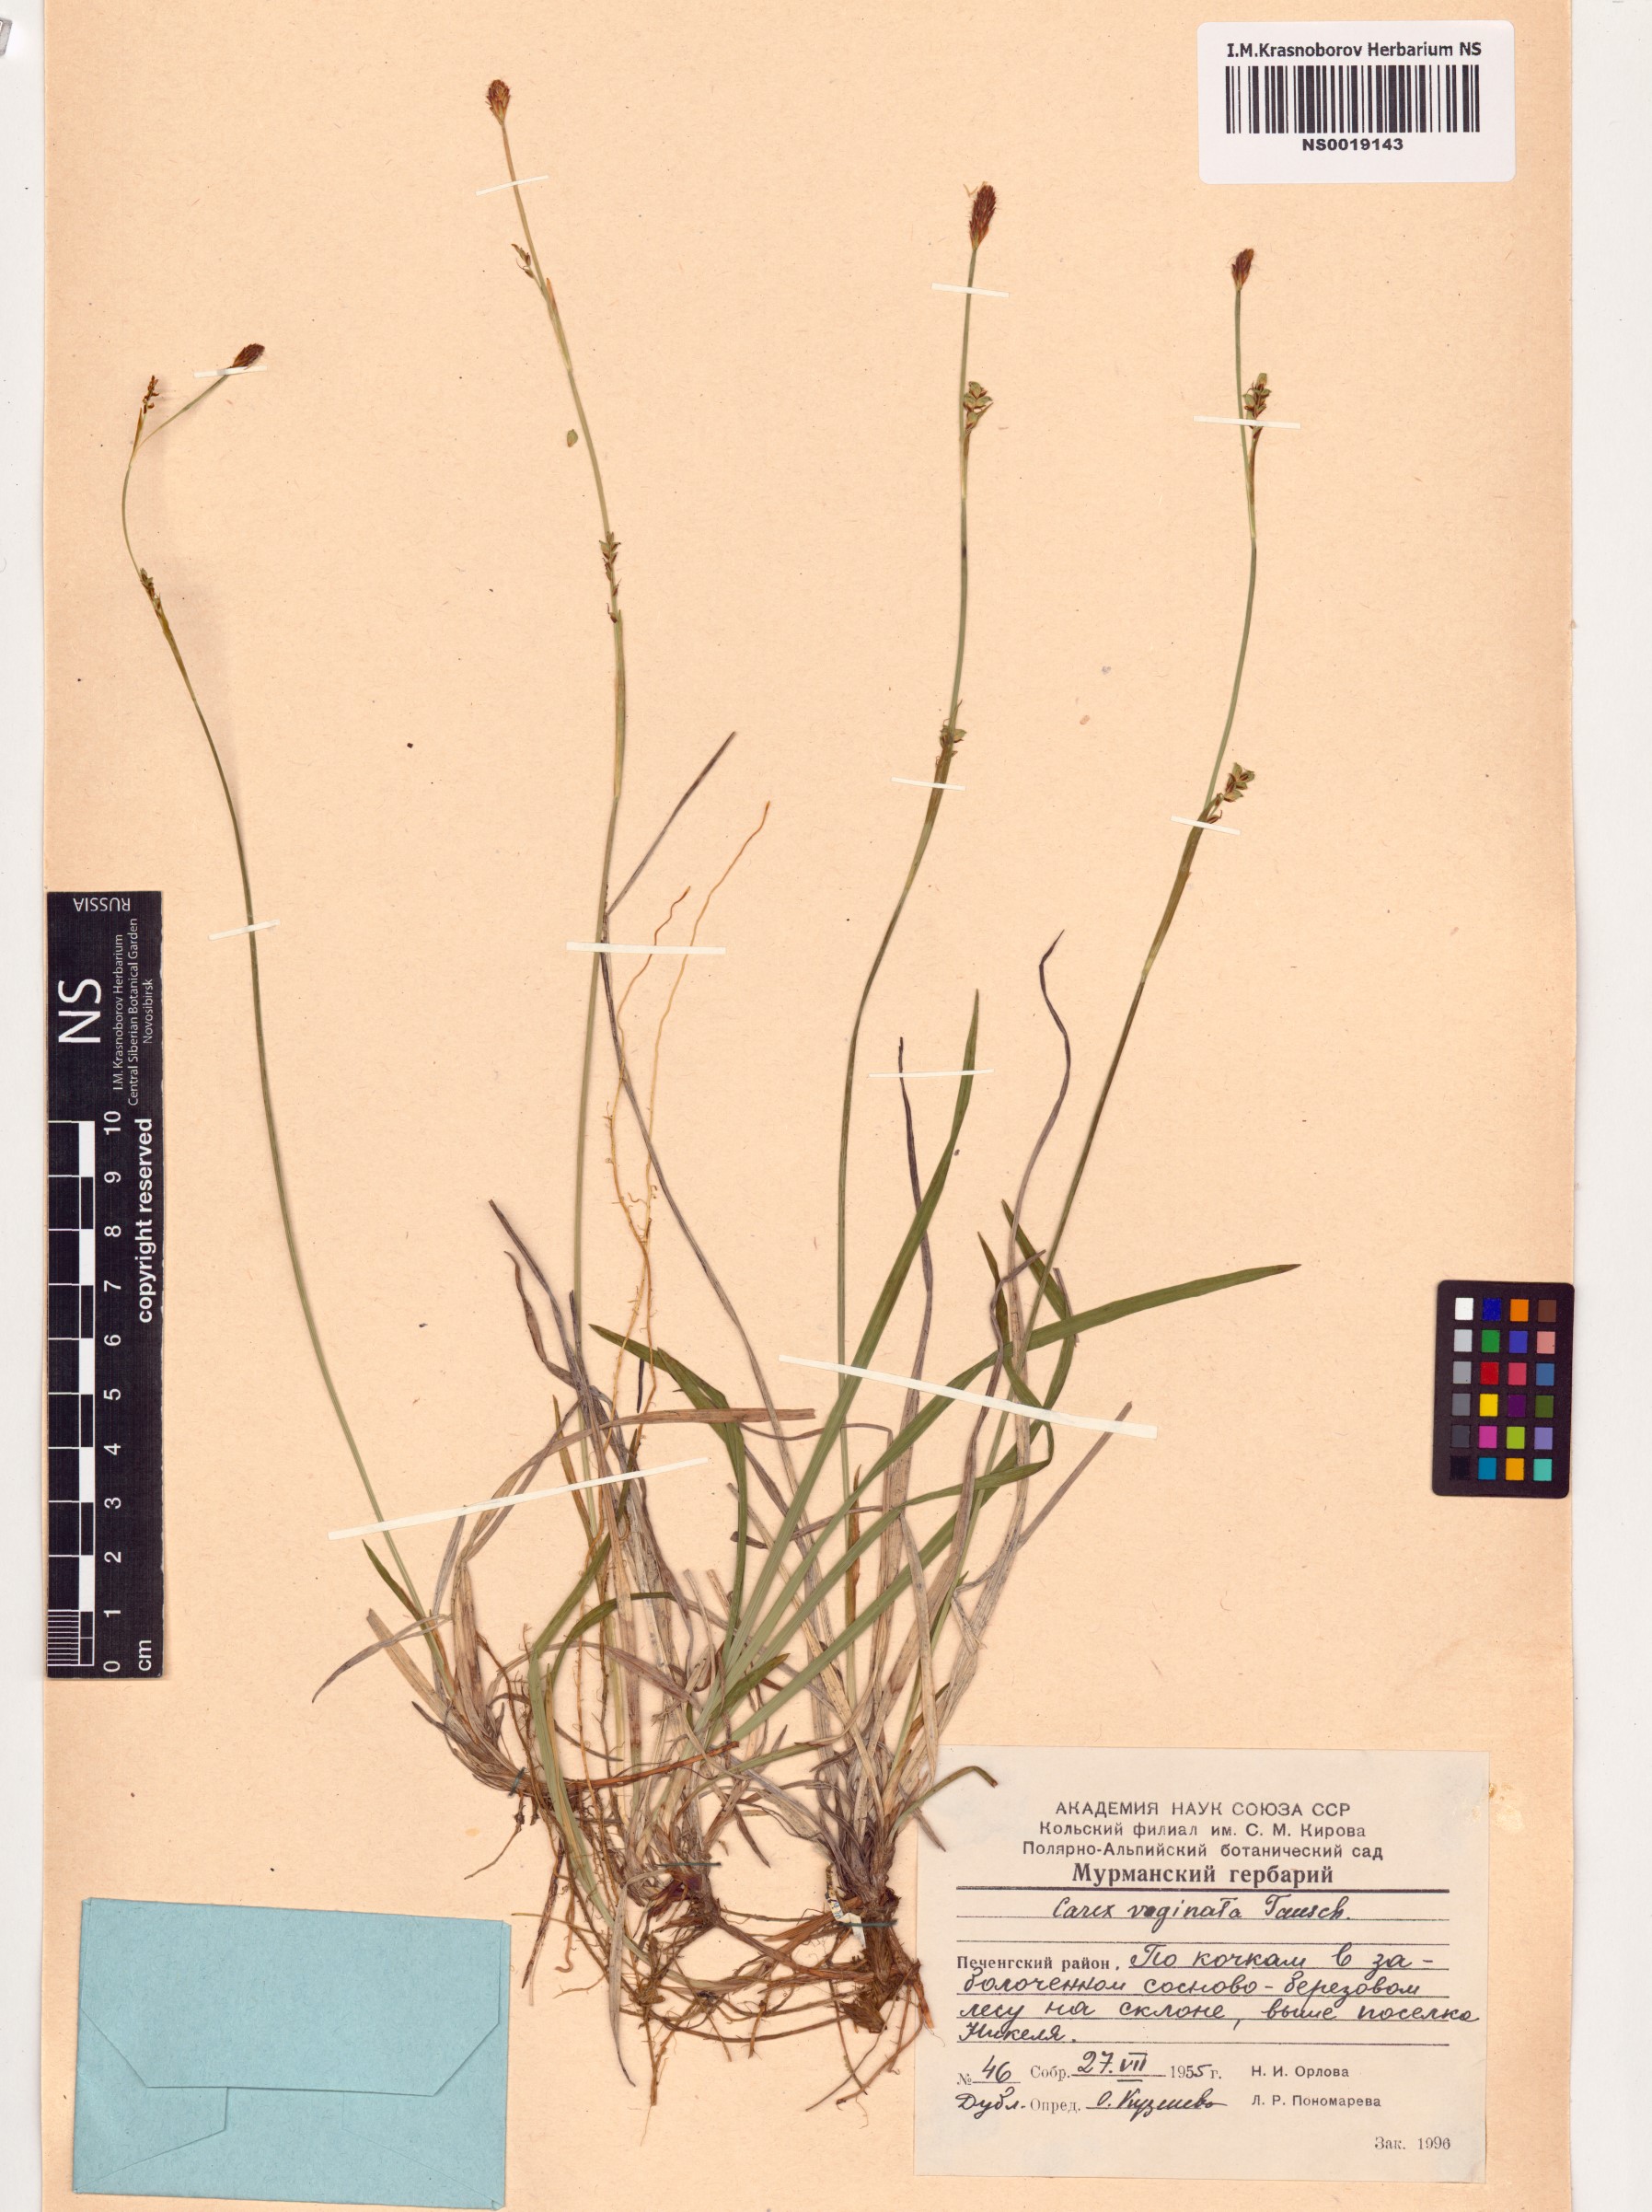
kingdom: Plantae
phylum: Tracheophyta
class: Liliopsida
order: Poales
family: Cyperaceae
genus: Carex
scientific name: Carex vaginata
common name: Sheathed sedge
